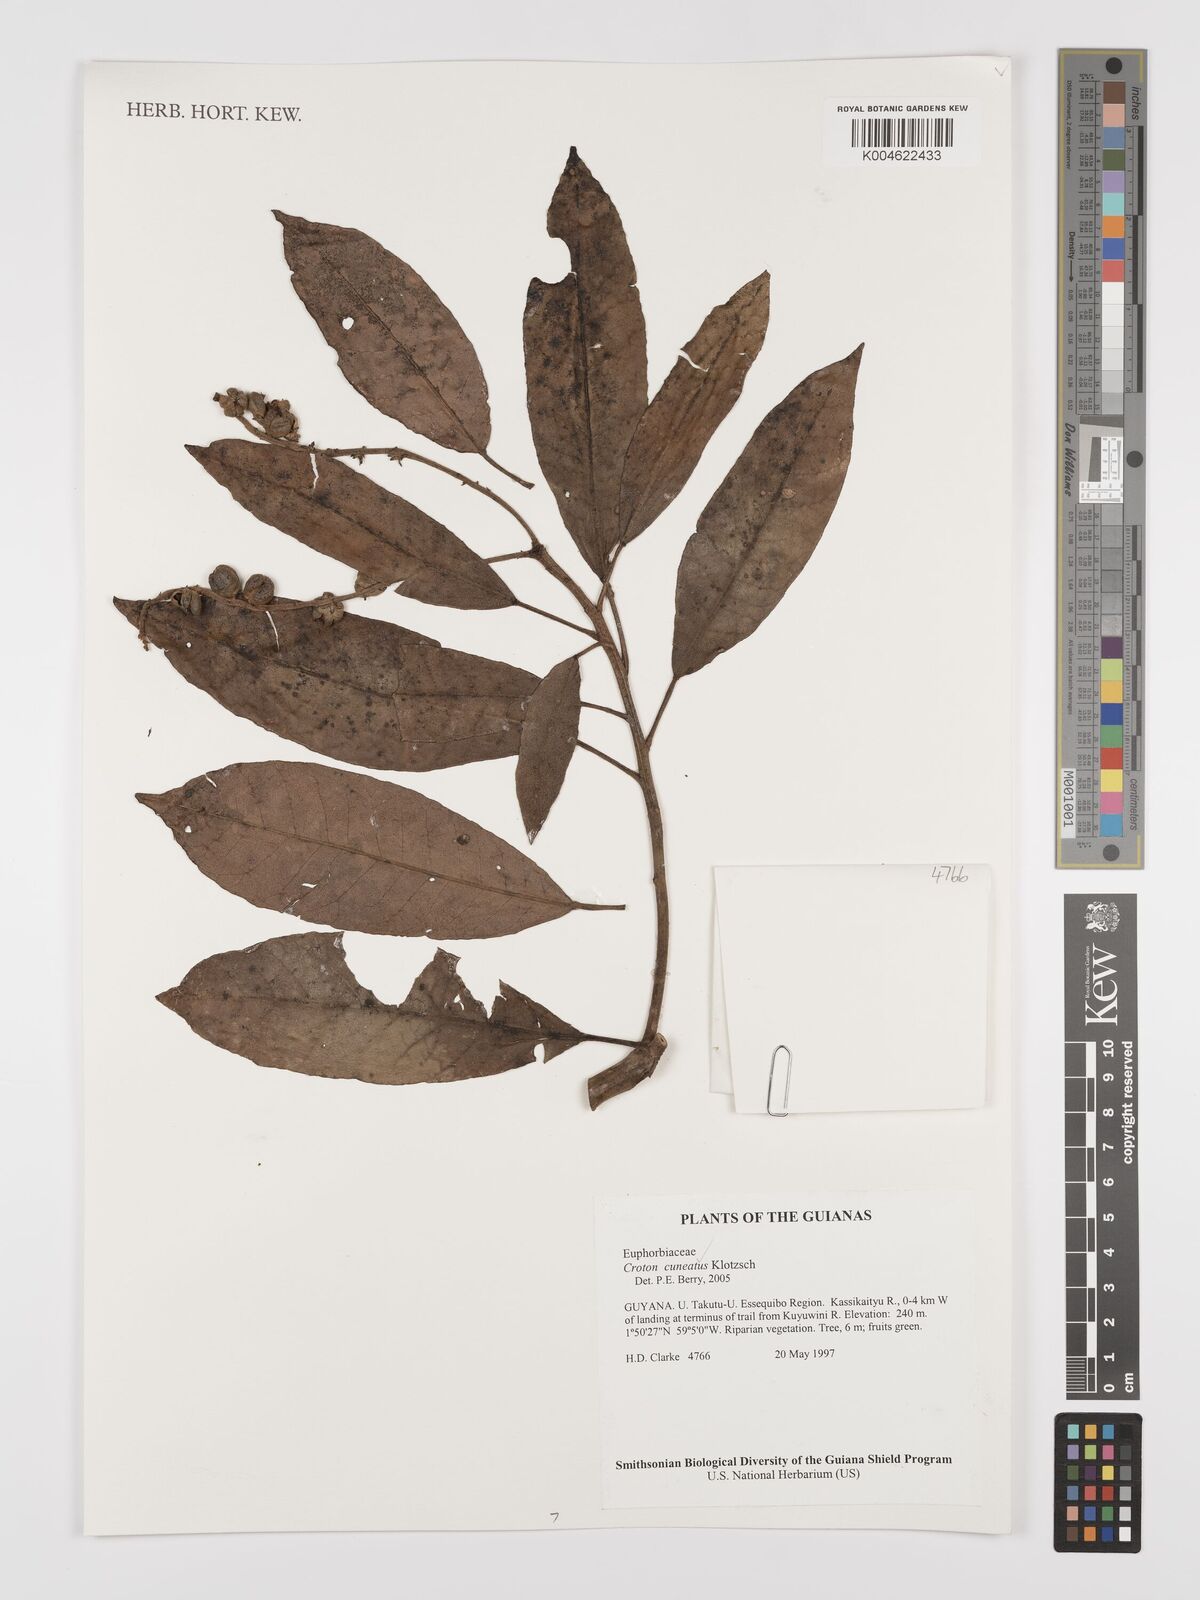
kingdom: Plantae
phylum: Tracheophyta
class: Magnoliopsida
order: Malpighiales
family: Euphorbiaceae
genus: Croton
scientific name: Croton
